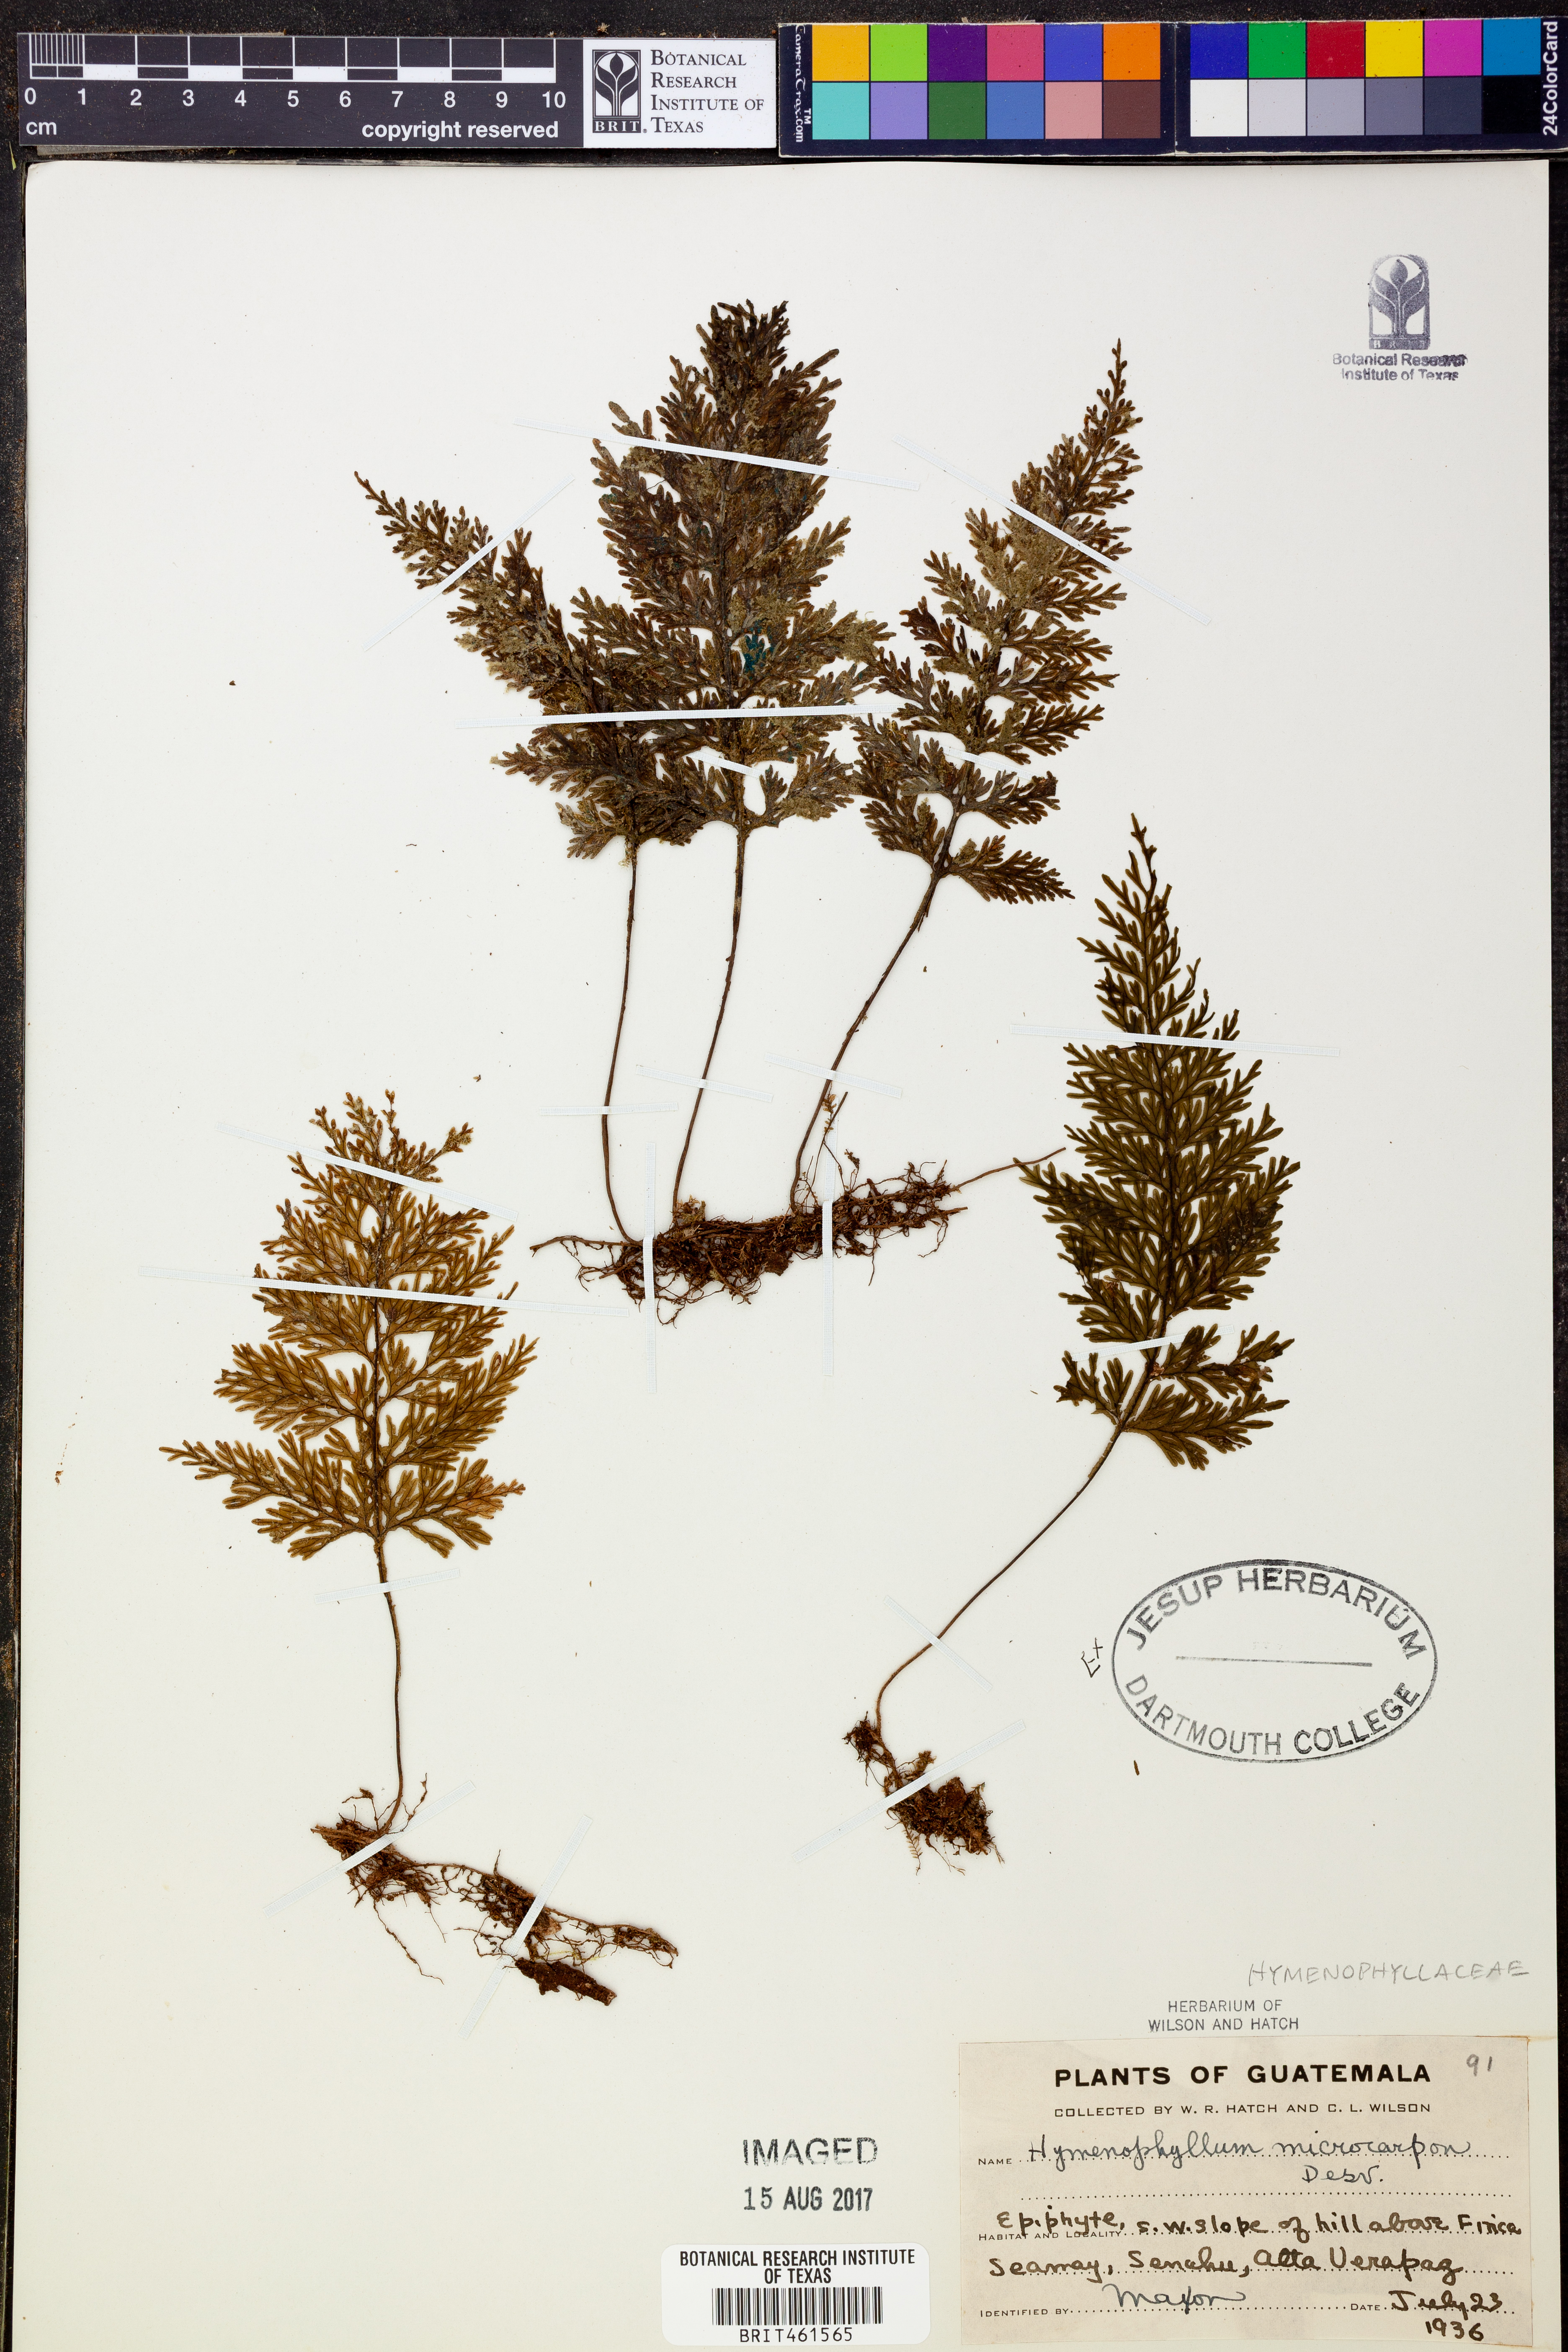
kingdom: Plantae
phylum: Tracheophyta
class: Polypodiopsida
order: Hymenophyllales
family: Hymenophyllaceae
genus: Hymenophyllum
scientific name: Hymenophyllum microcarpum
